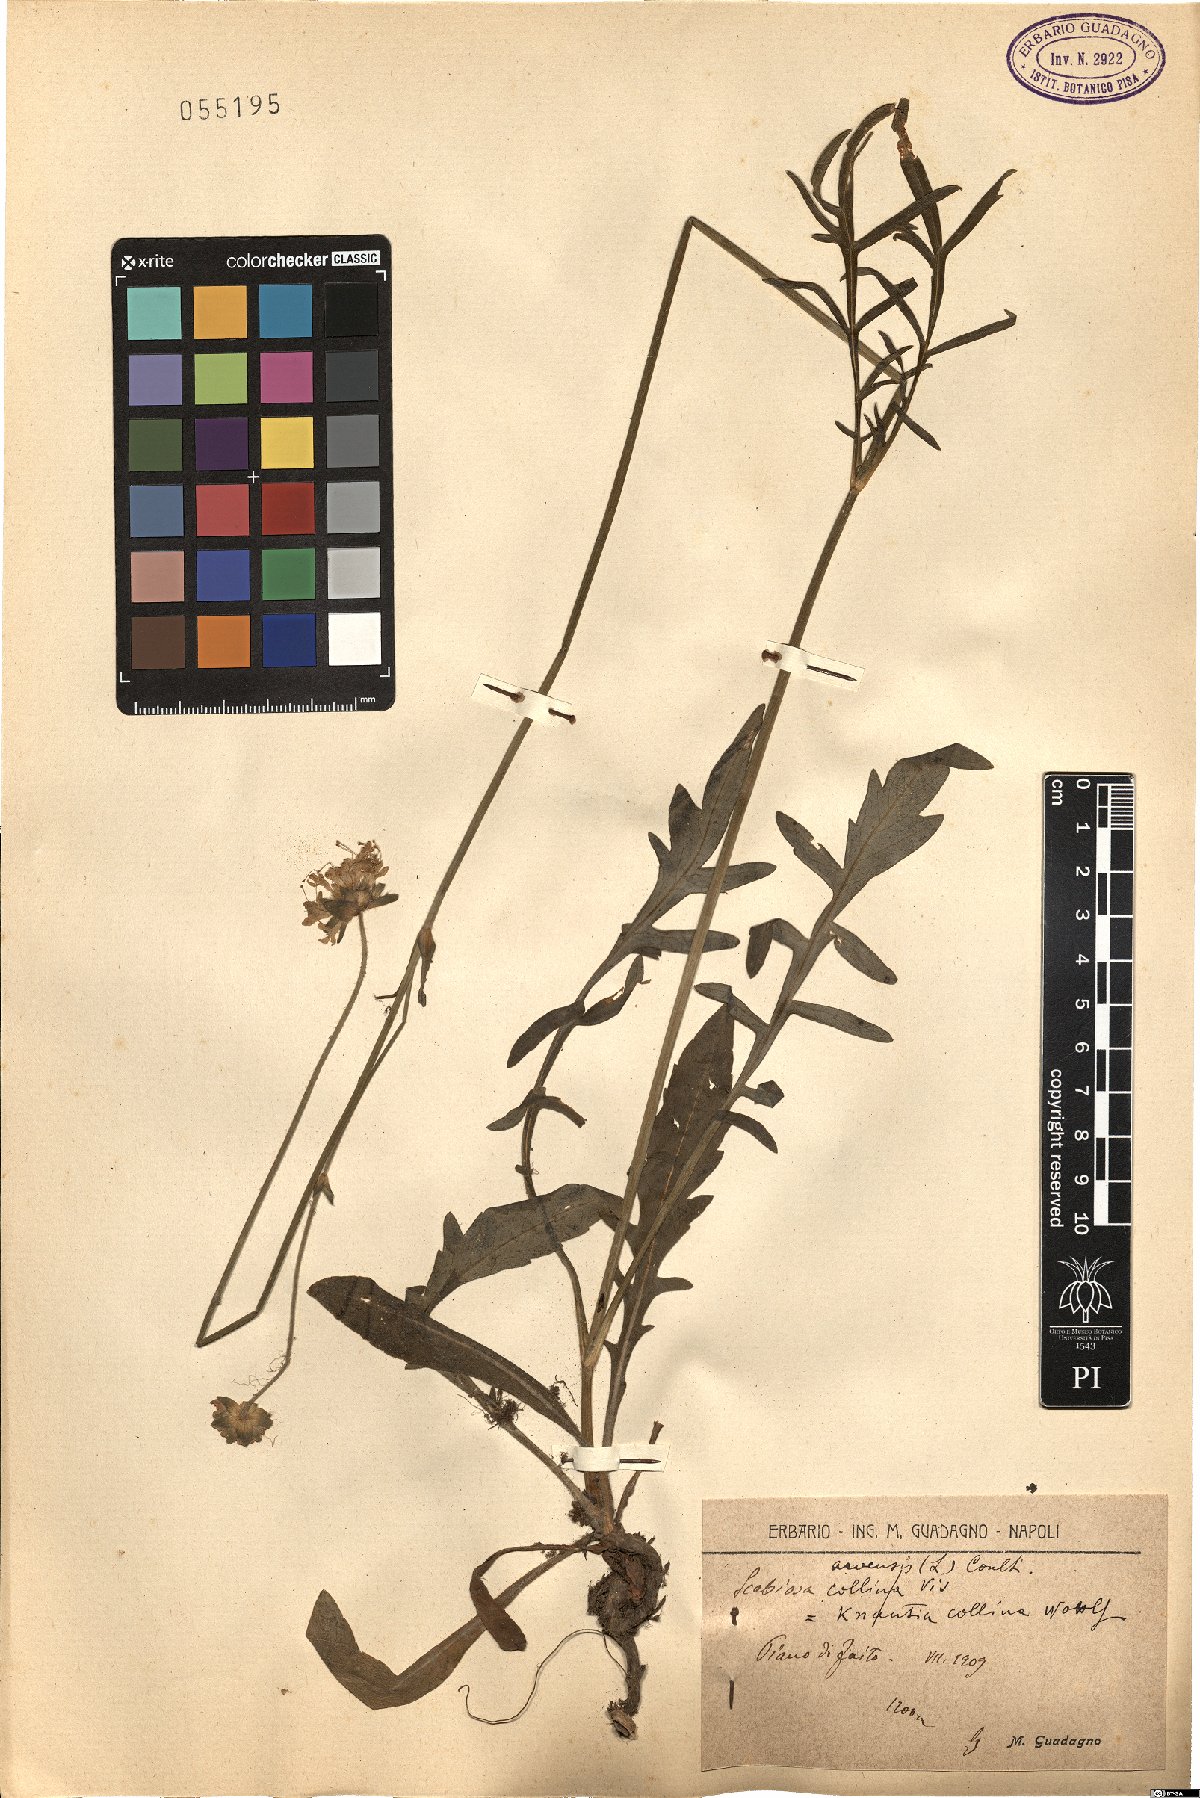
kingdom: Plantae
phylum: Tracheophyta
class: Magnoliopsida
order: Dipsacales
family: Caprifoliaceae
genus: Knautia
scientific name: Knautia collina
